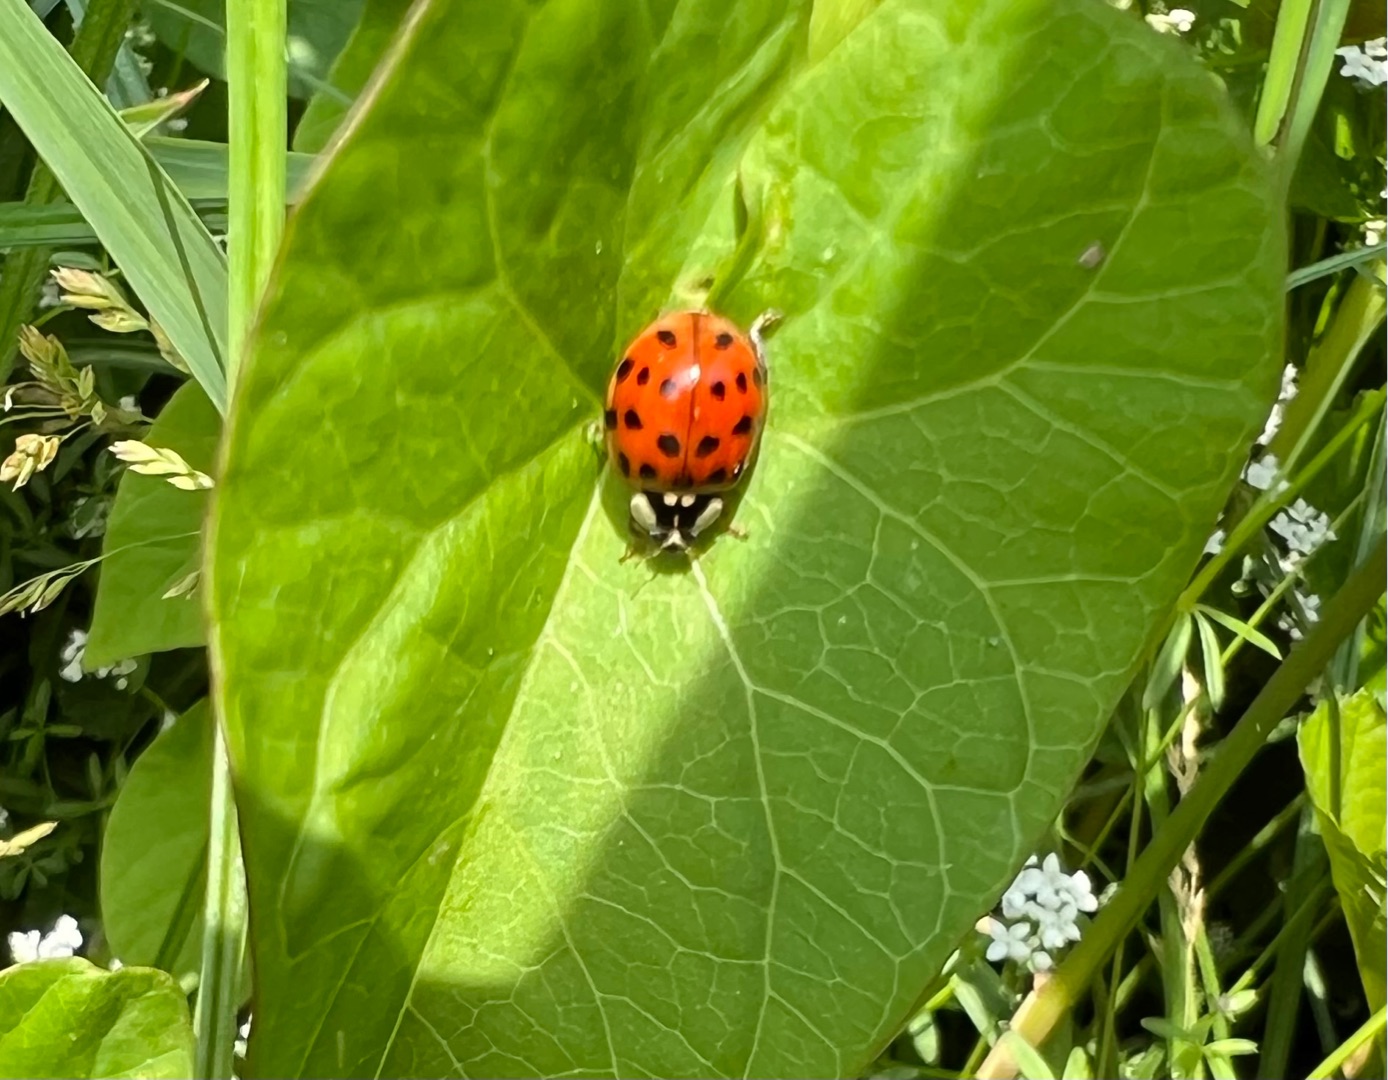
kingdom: Animalia
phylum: Arthropoda
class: Insecta
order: Coleoptera
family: Coccinellidae
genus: Harmonia
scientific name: Harmonia axyridis
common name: Harlekinmariehøne
